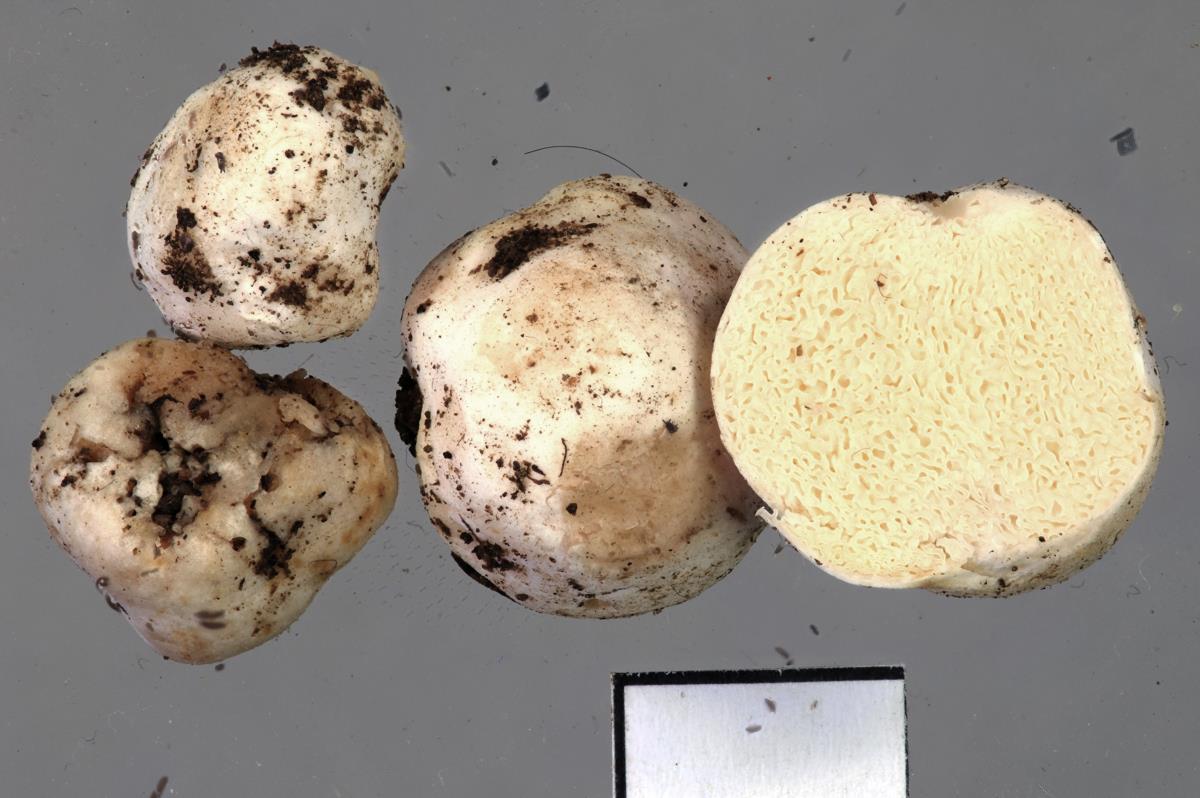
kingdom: Fungi
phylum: Basidiomycota
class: Agaricomycetes
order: Russulales
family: Russulaceae
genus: Russula
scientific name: Russula osphranticarpa
